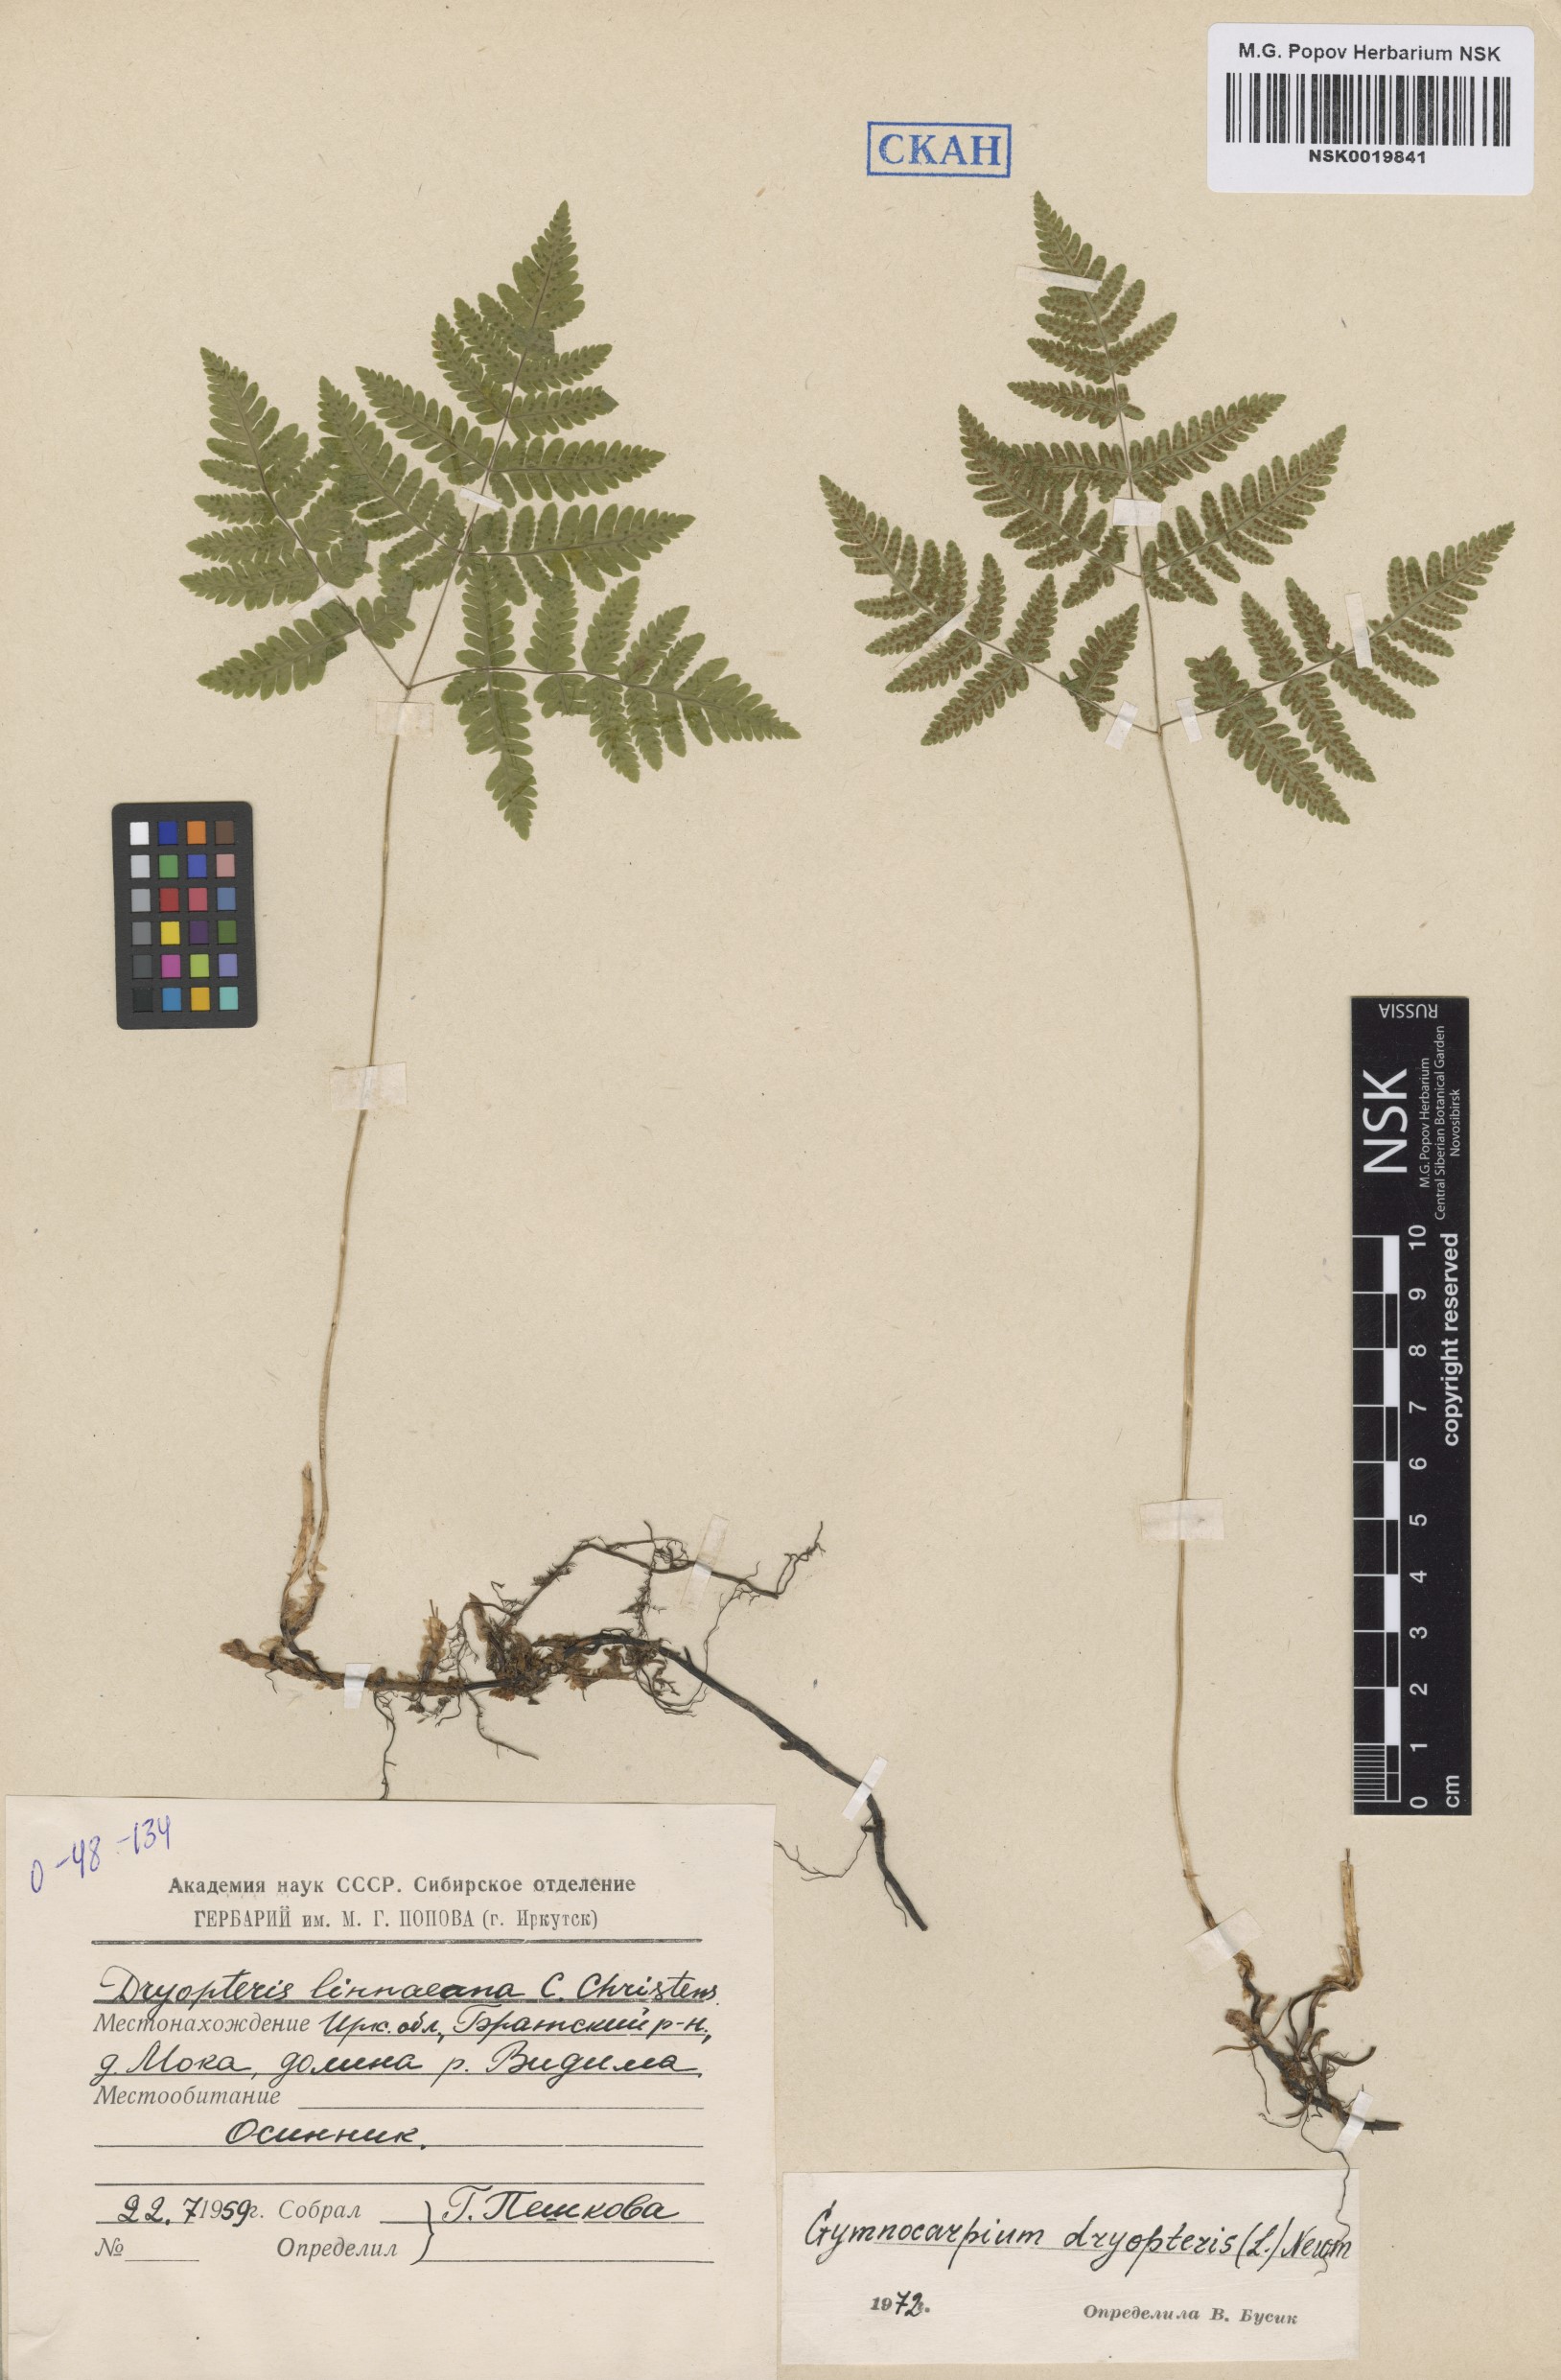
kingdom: Plantae
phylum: Tracheophyta
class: Polypodiopsida
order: Polypodiales
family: Cystopteridaceae
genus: Gymnocarpium
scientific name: Gymnocarpium dryopteris
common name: Oak fern
